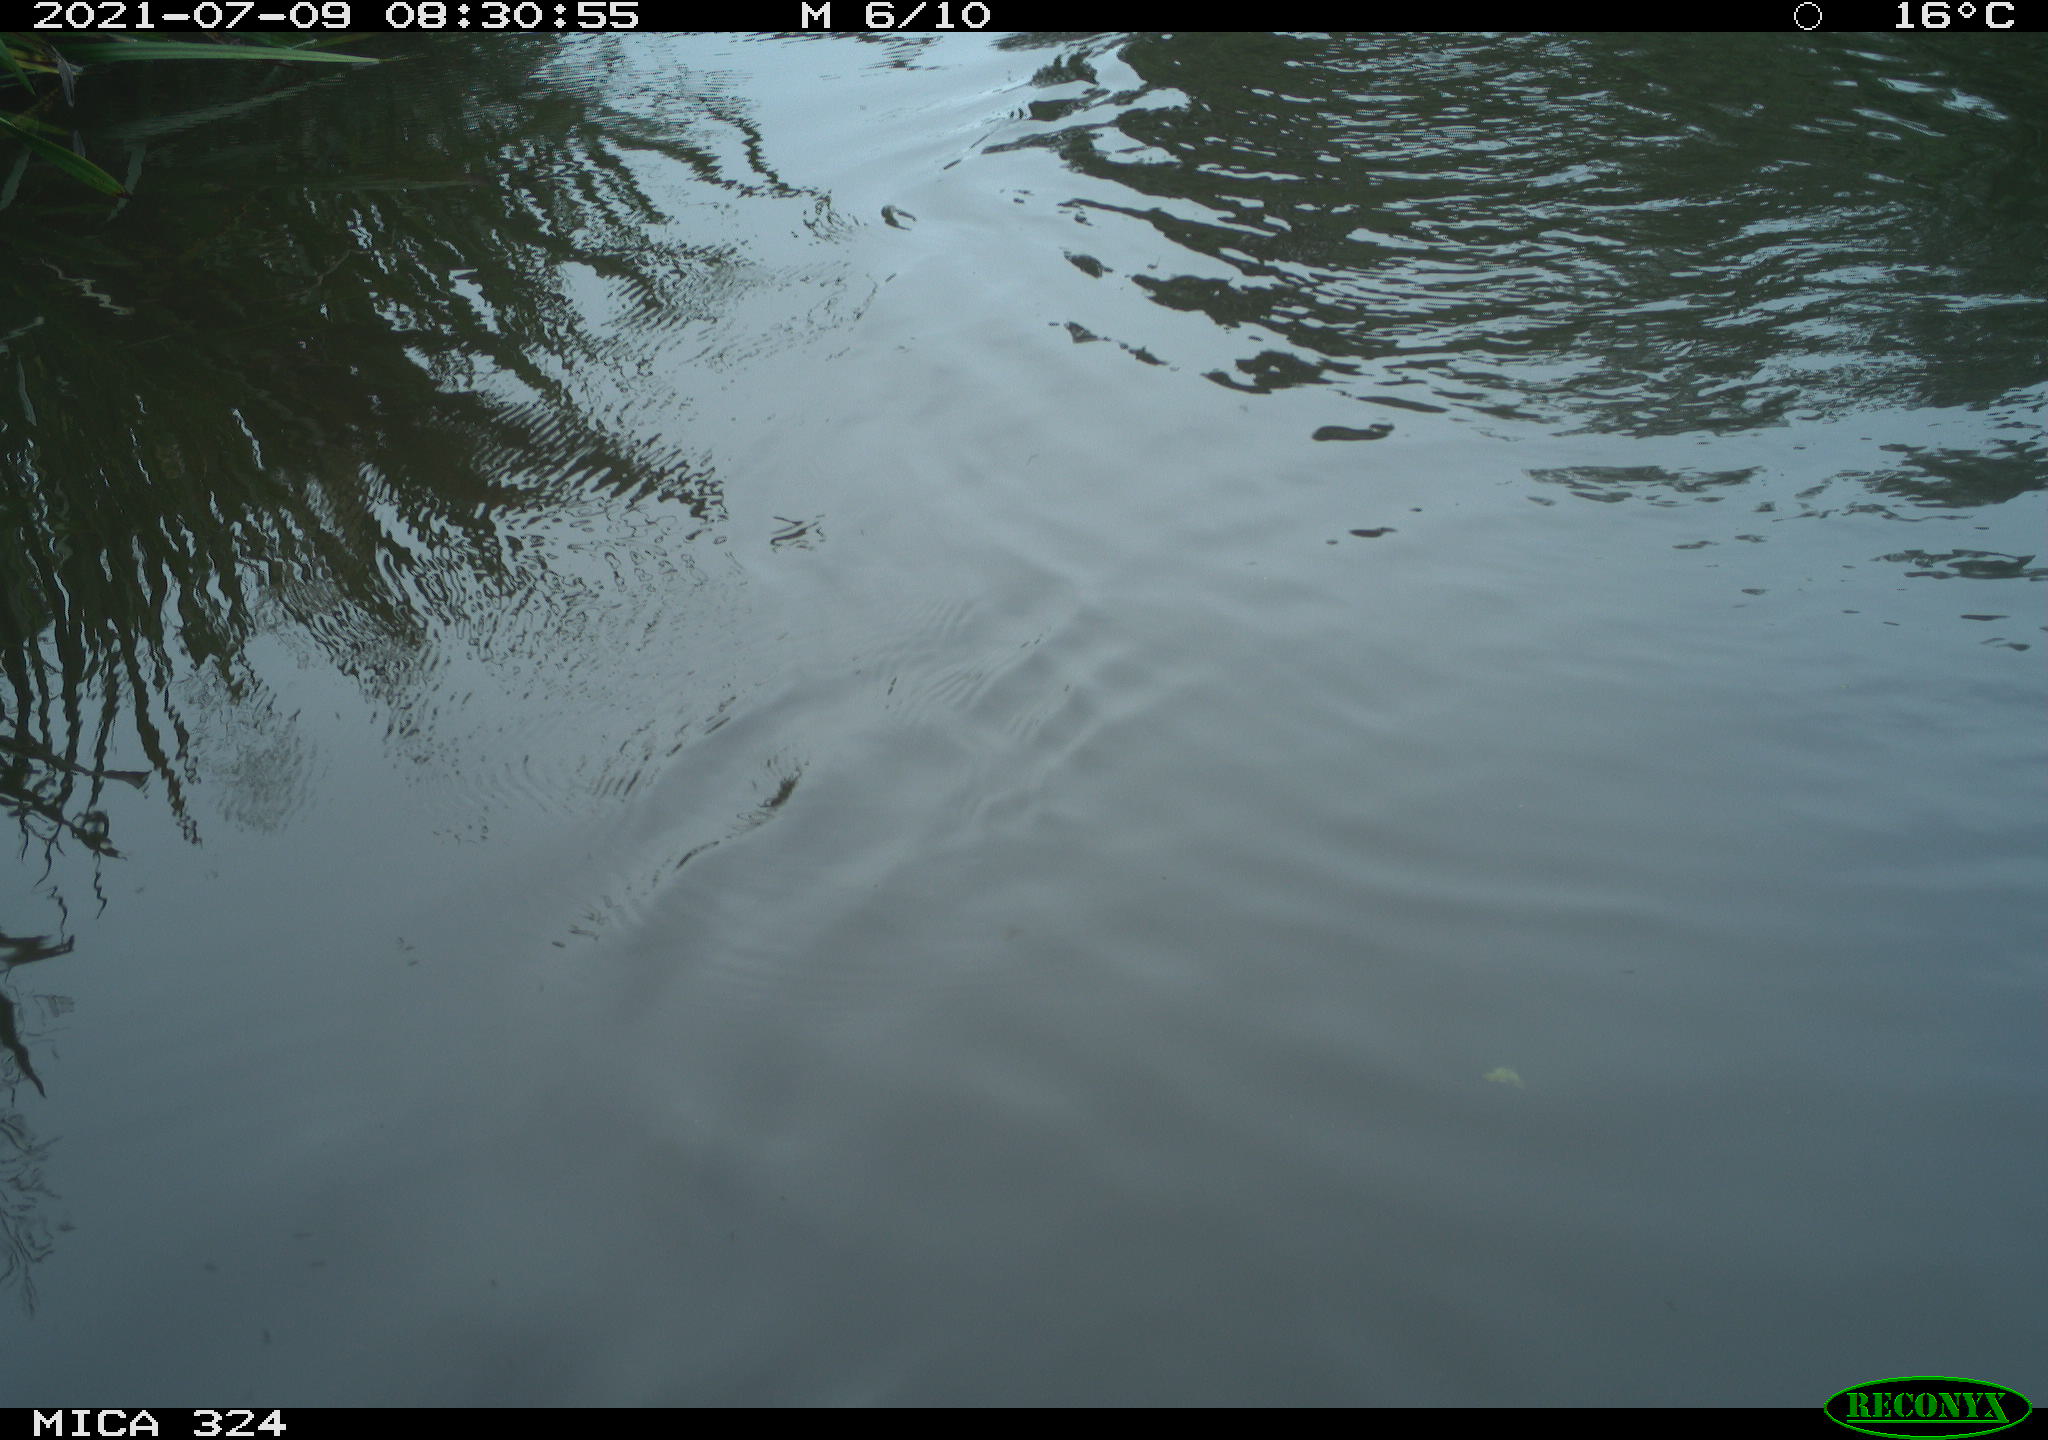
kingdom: Animalia
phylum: Chordata
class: Mammalia
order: Rodentia
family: Cricetidae
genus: Ondatra
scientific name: Ondatra zibethicus
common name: Muskrat
